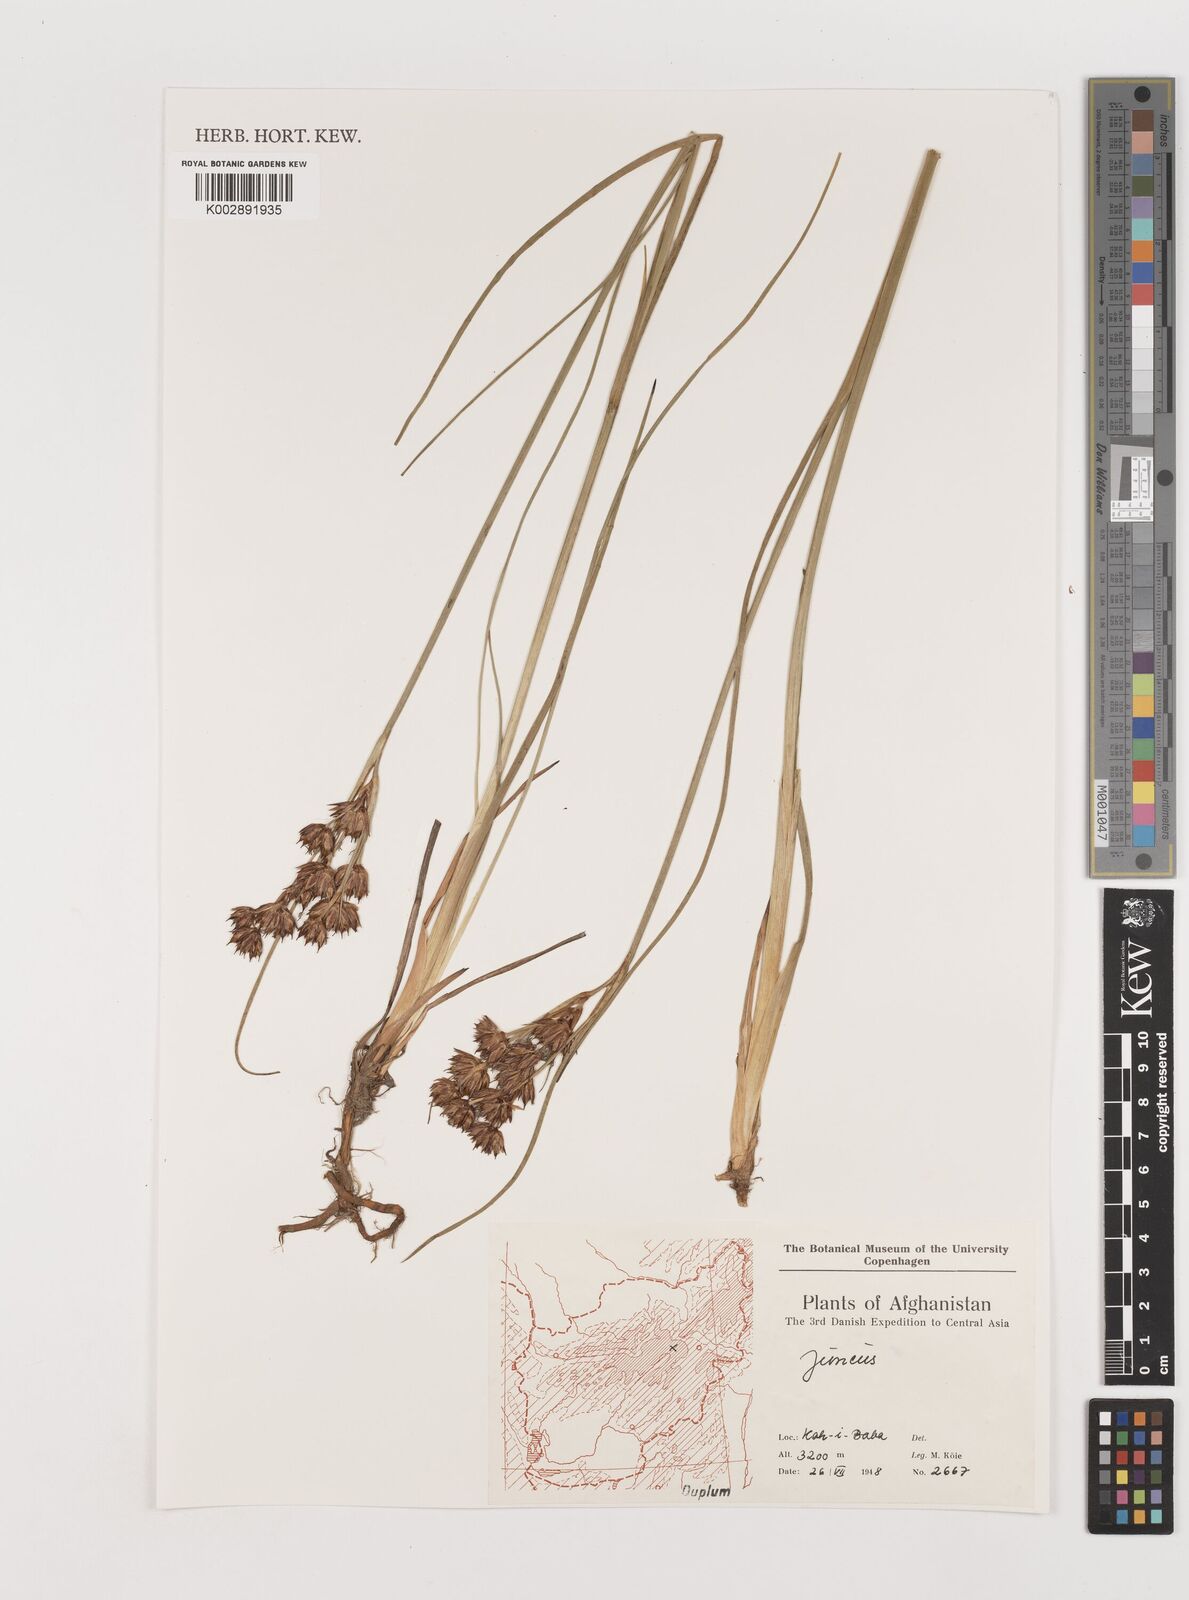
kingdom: Plantae
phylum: Tracheophyta
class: Liliopsida
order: Poales
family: Juncaceae
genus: Juncus
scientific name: Juncus
